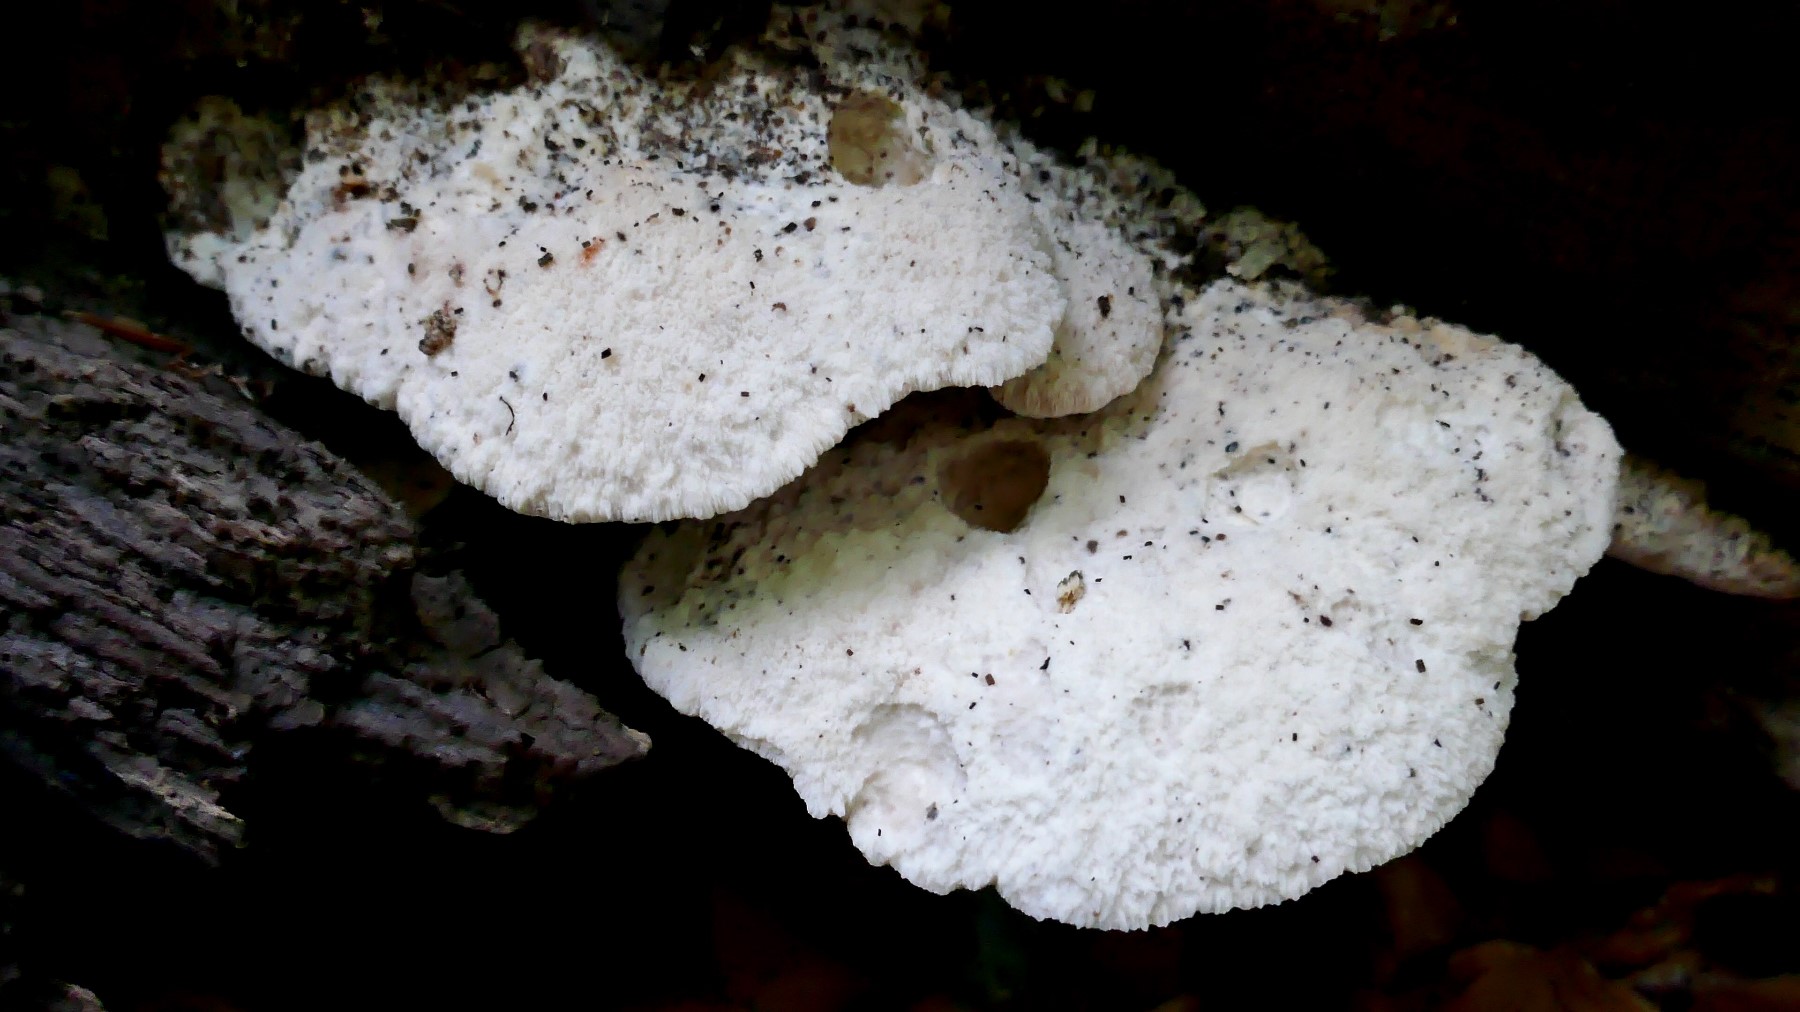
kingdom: Fungi
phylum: Basidiomycota
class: Agaricomycetes
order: Polyporales
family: Meruliaceae
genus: Pappia
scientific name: Pappia fissilis
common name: sej fedtporesvamp
